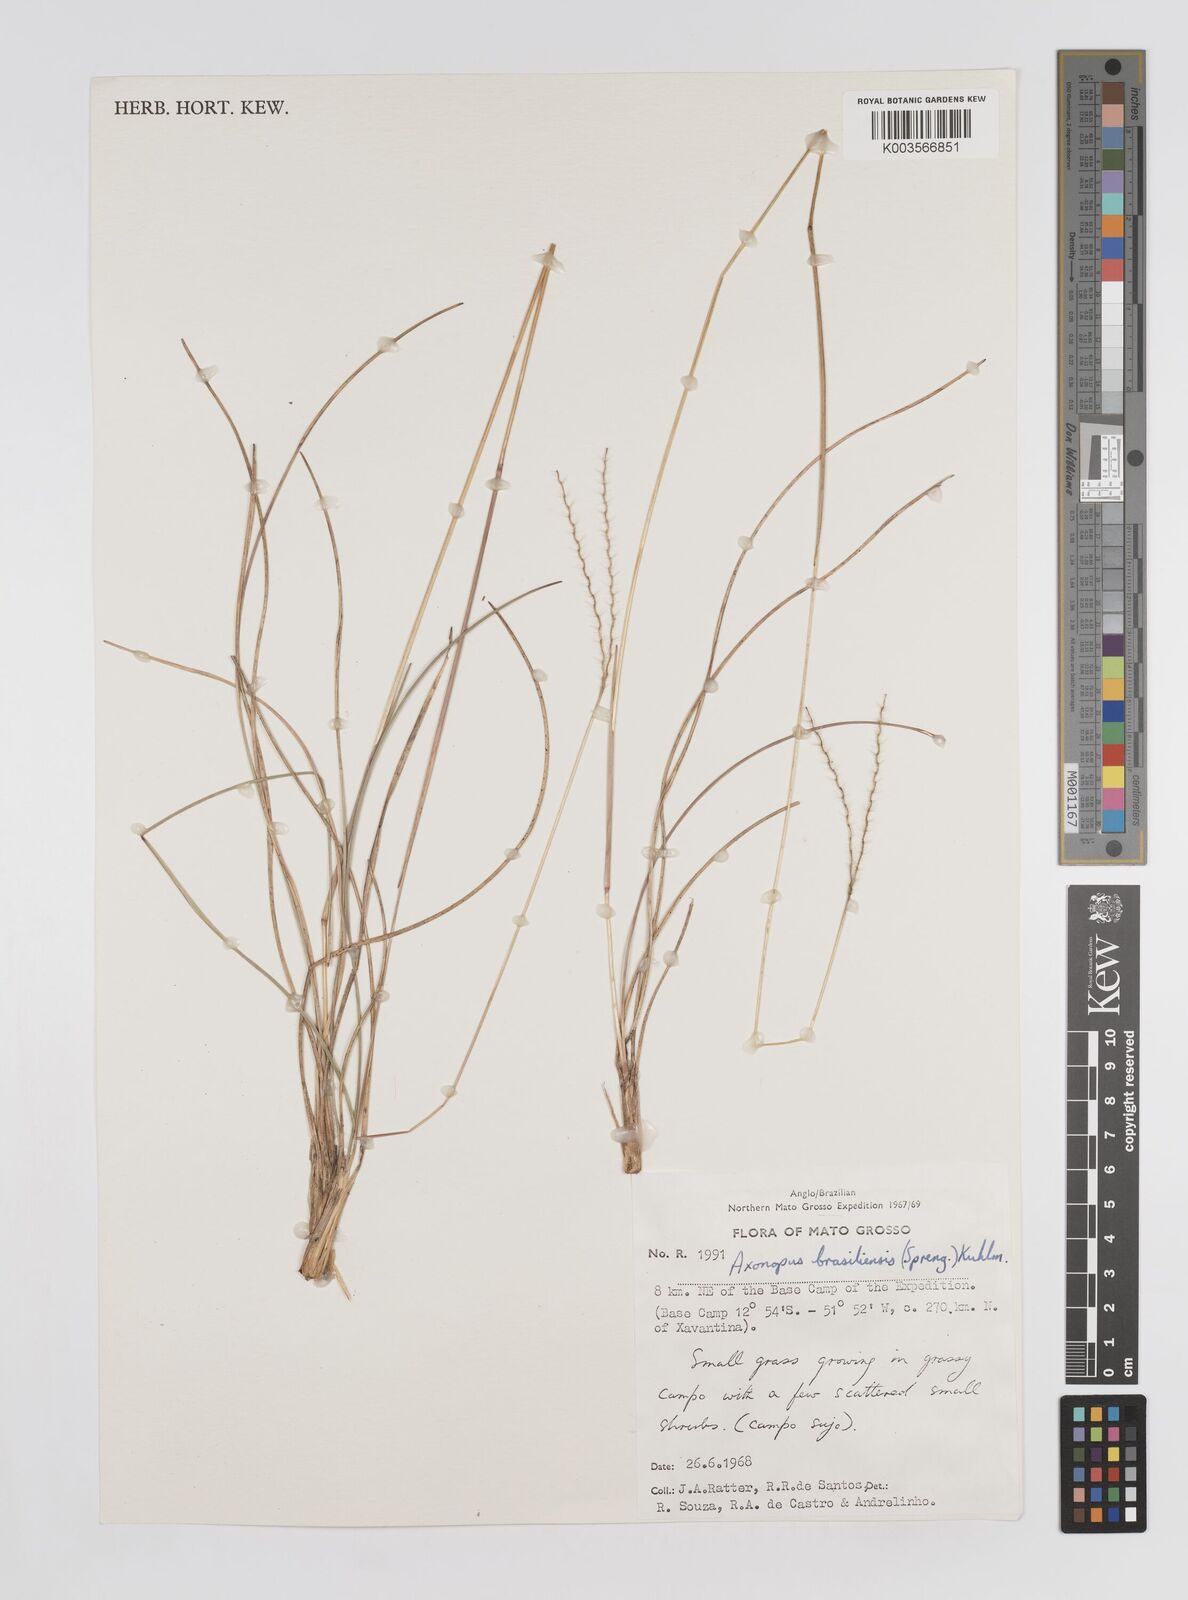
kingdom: Plantae
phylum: Tracheophyta
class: Liliopsida
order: Poales
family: Poaceae
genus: Axonopus
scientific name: Axonopus brasiliensis
